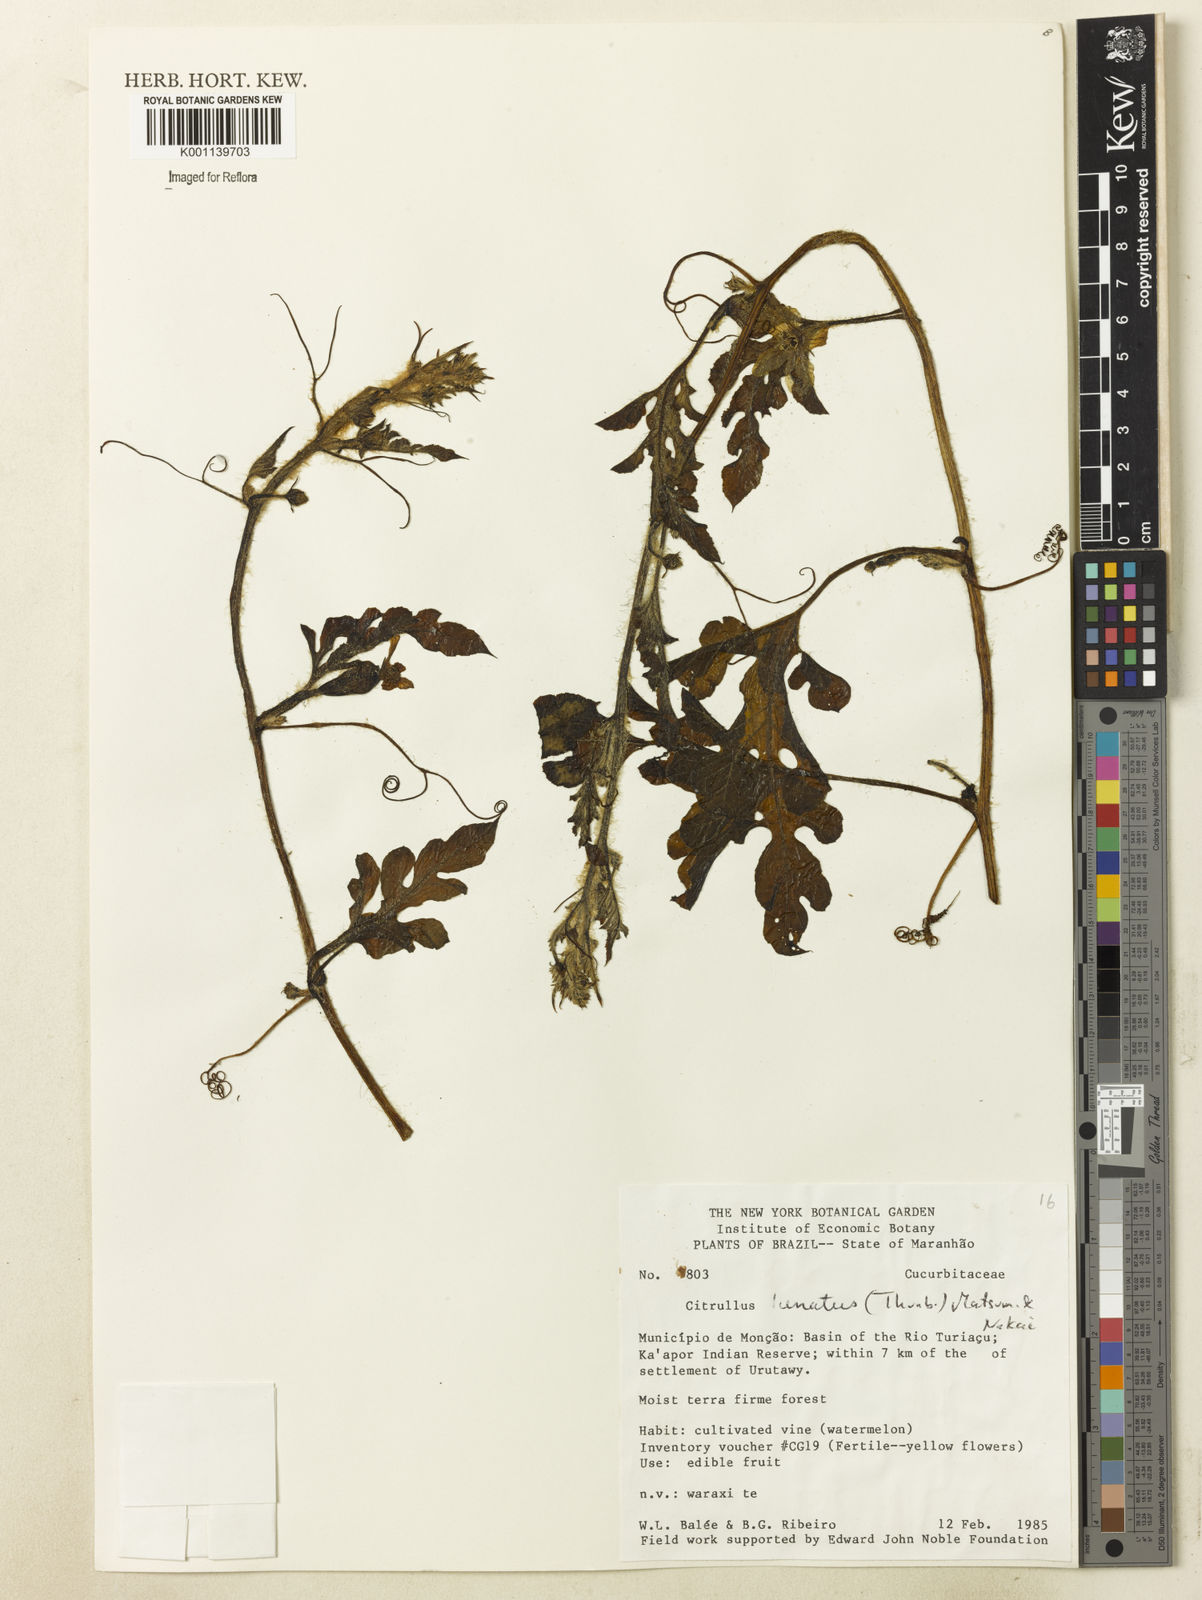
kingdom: Plantae
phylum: Tracheophyta
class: Magnoliopsida
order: Cucurbitales
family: Cucurbitaceae
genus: Citrullus
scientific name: Citrullus lanatus
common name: Watermelon
